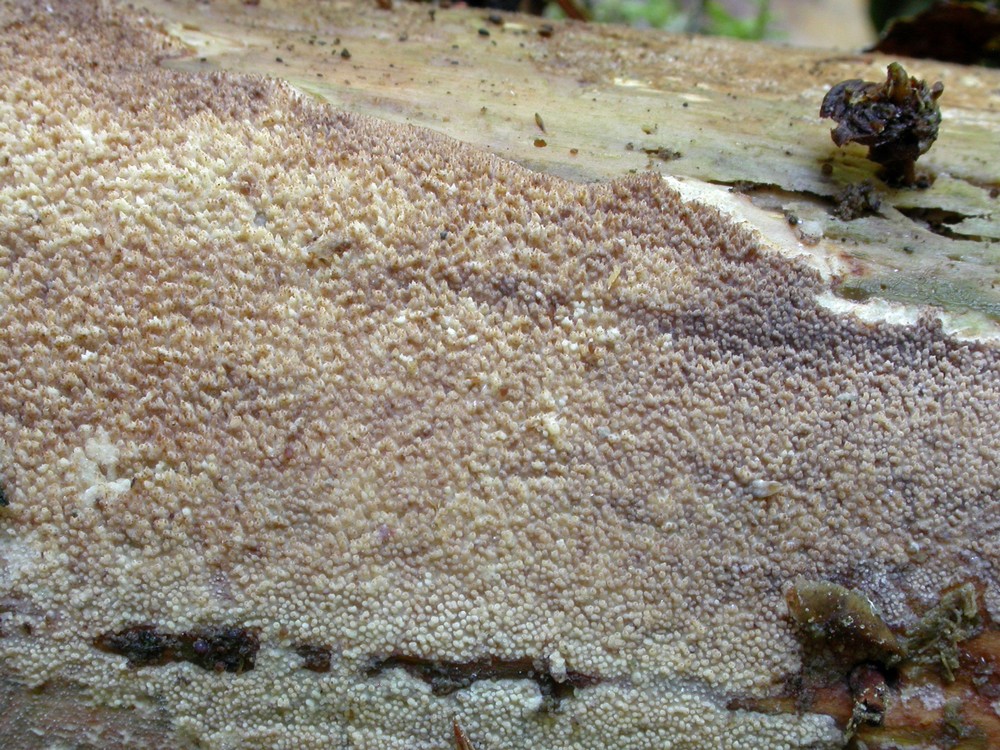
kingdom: Fungi
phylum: Basidiomycota
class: Agaricomycetes
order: Hymenochaetales
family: Rickenellaceae
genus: Resinicium
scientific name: Resinicium bicolor
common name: almindelig vokstand
